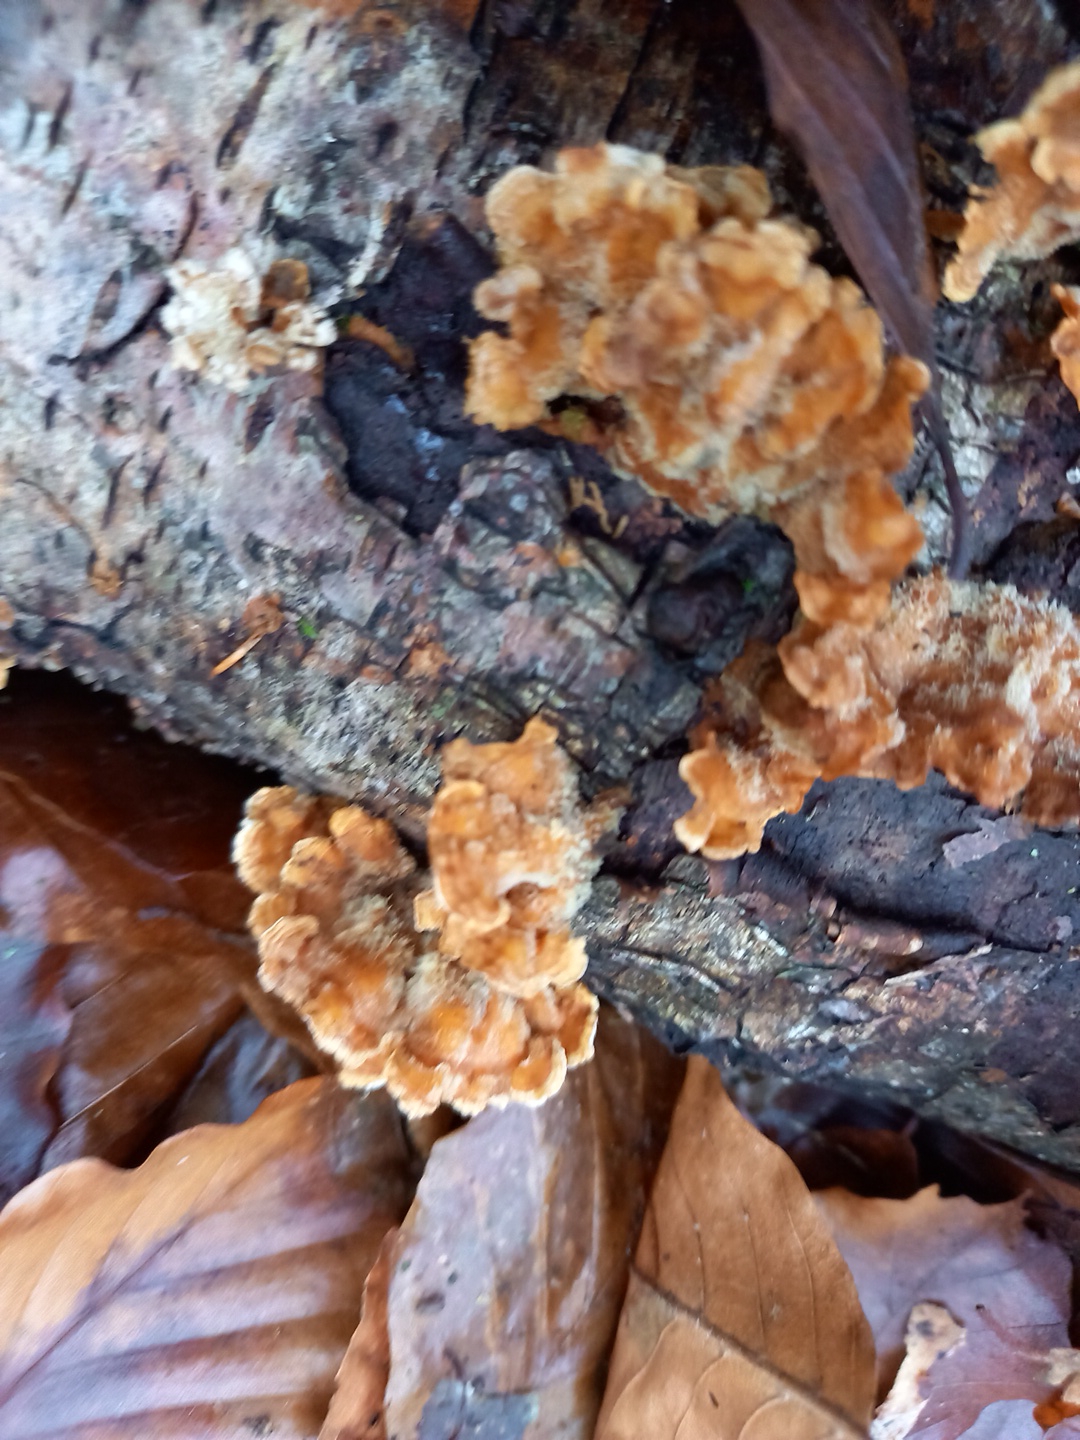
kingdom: Fungi
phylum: Basidiomycota
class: Agaricomycetes
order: Russulales
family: Stereaceae
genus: Stereum
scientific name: Stereum hirsutum
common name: håret lædersvamp
